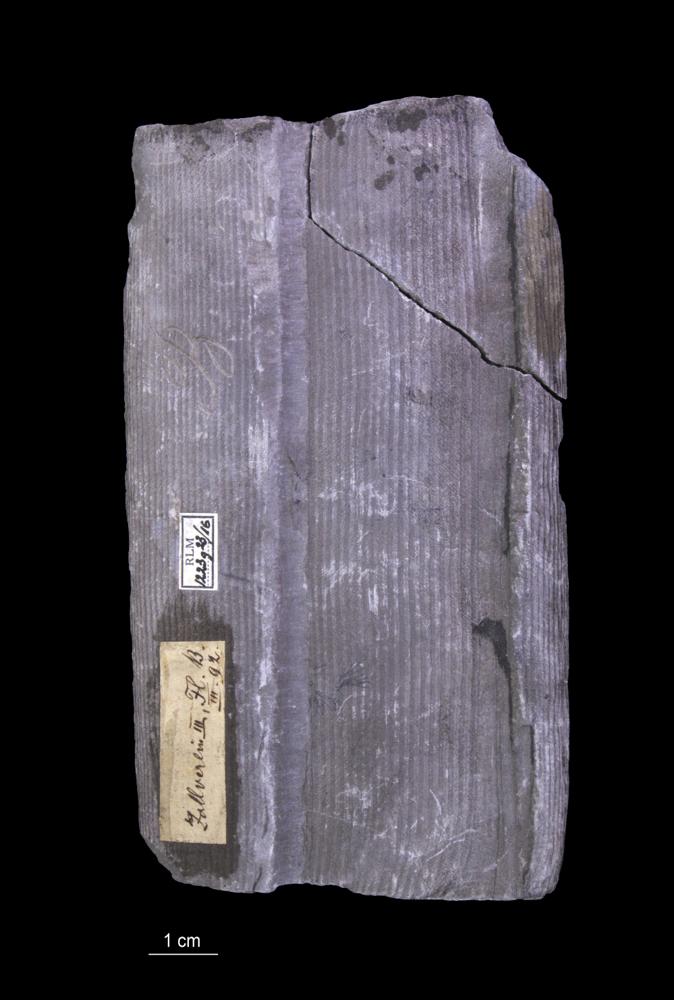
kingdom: Plantae
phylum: Tracheophyta
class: Polypodiopsida
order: Equisetales
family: Calamitaceae
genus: Calamites
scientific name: Calamites
